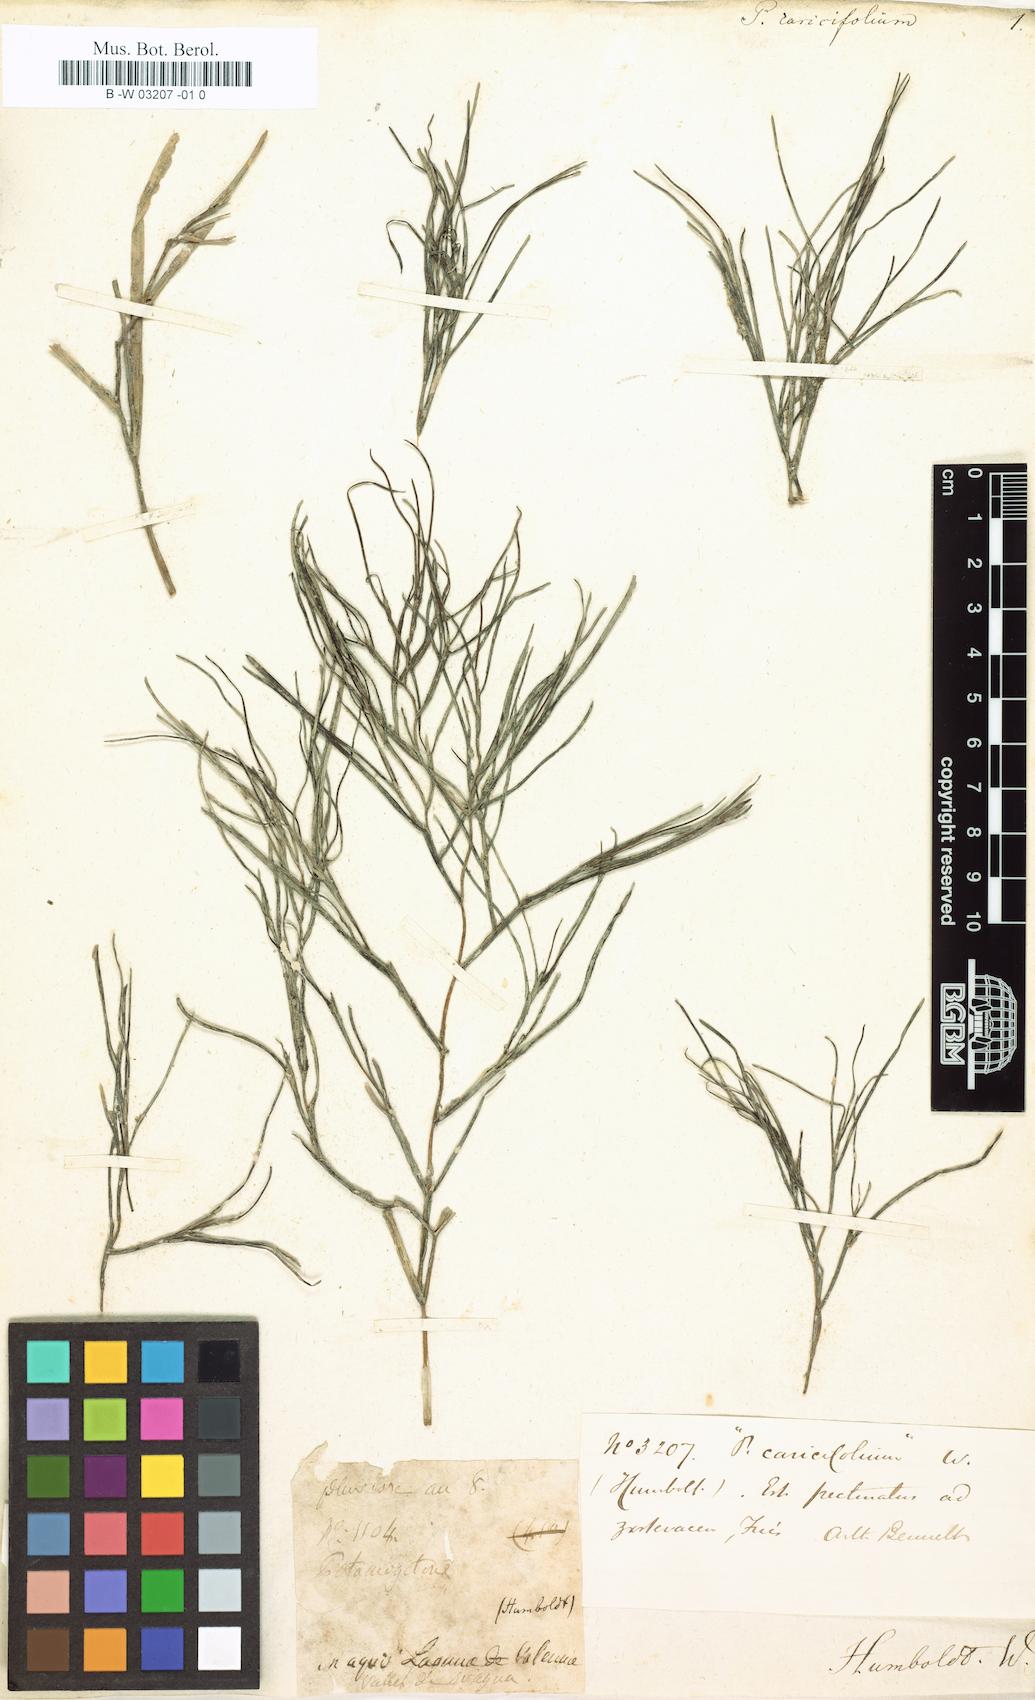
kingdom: Plantae
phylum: Tracheophyta
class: Liliopsida
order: Alismatales
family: Potamogetonaceae
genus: Potamogeton
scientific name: Potamogeton caricifolius
